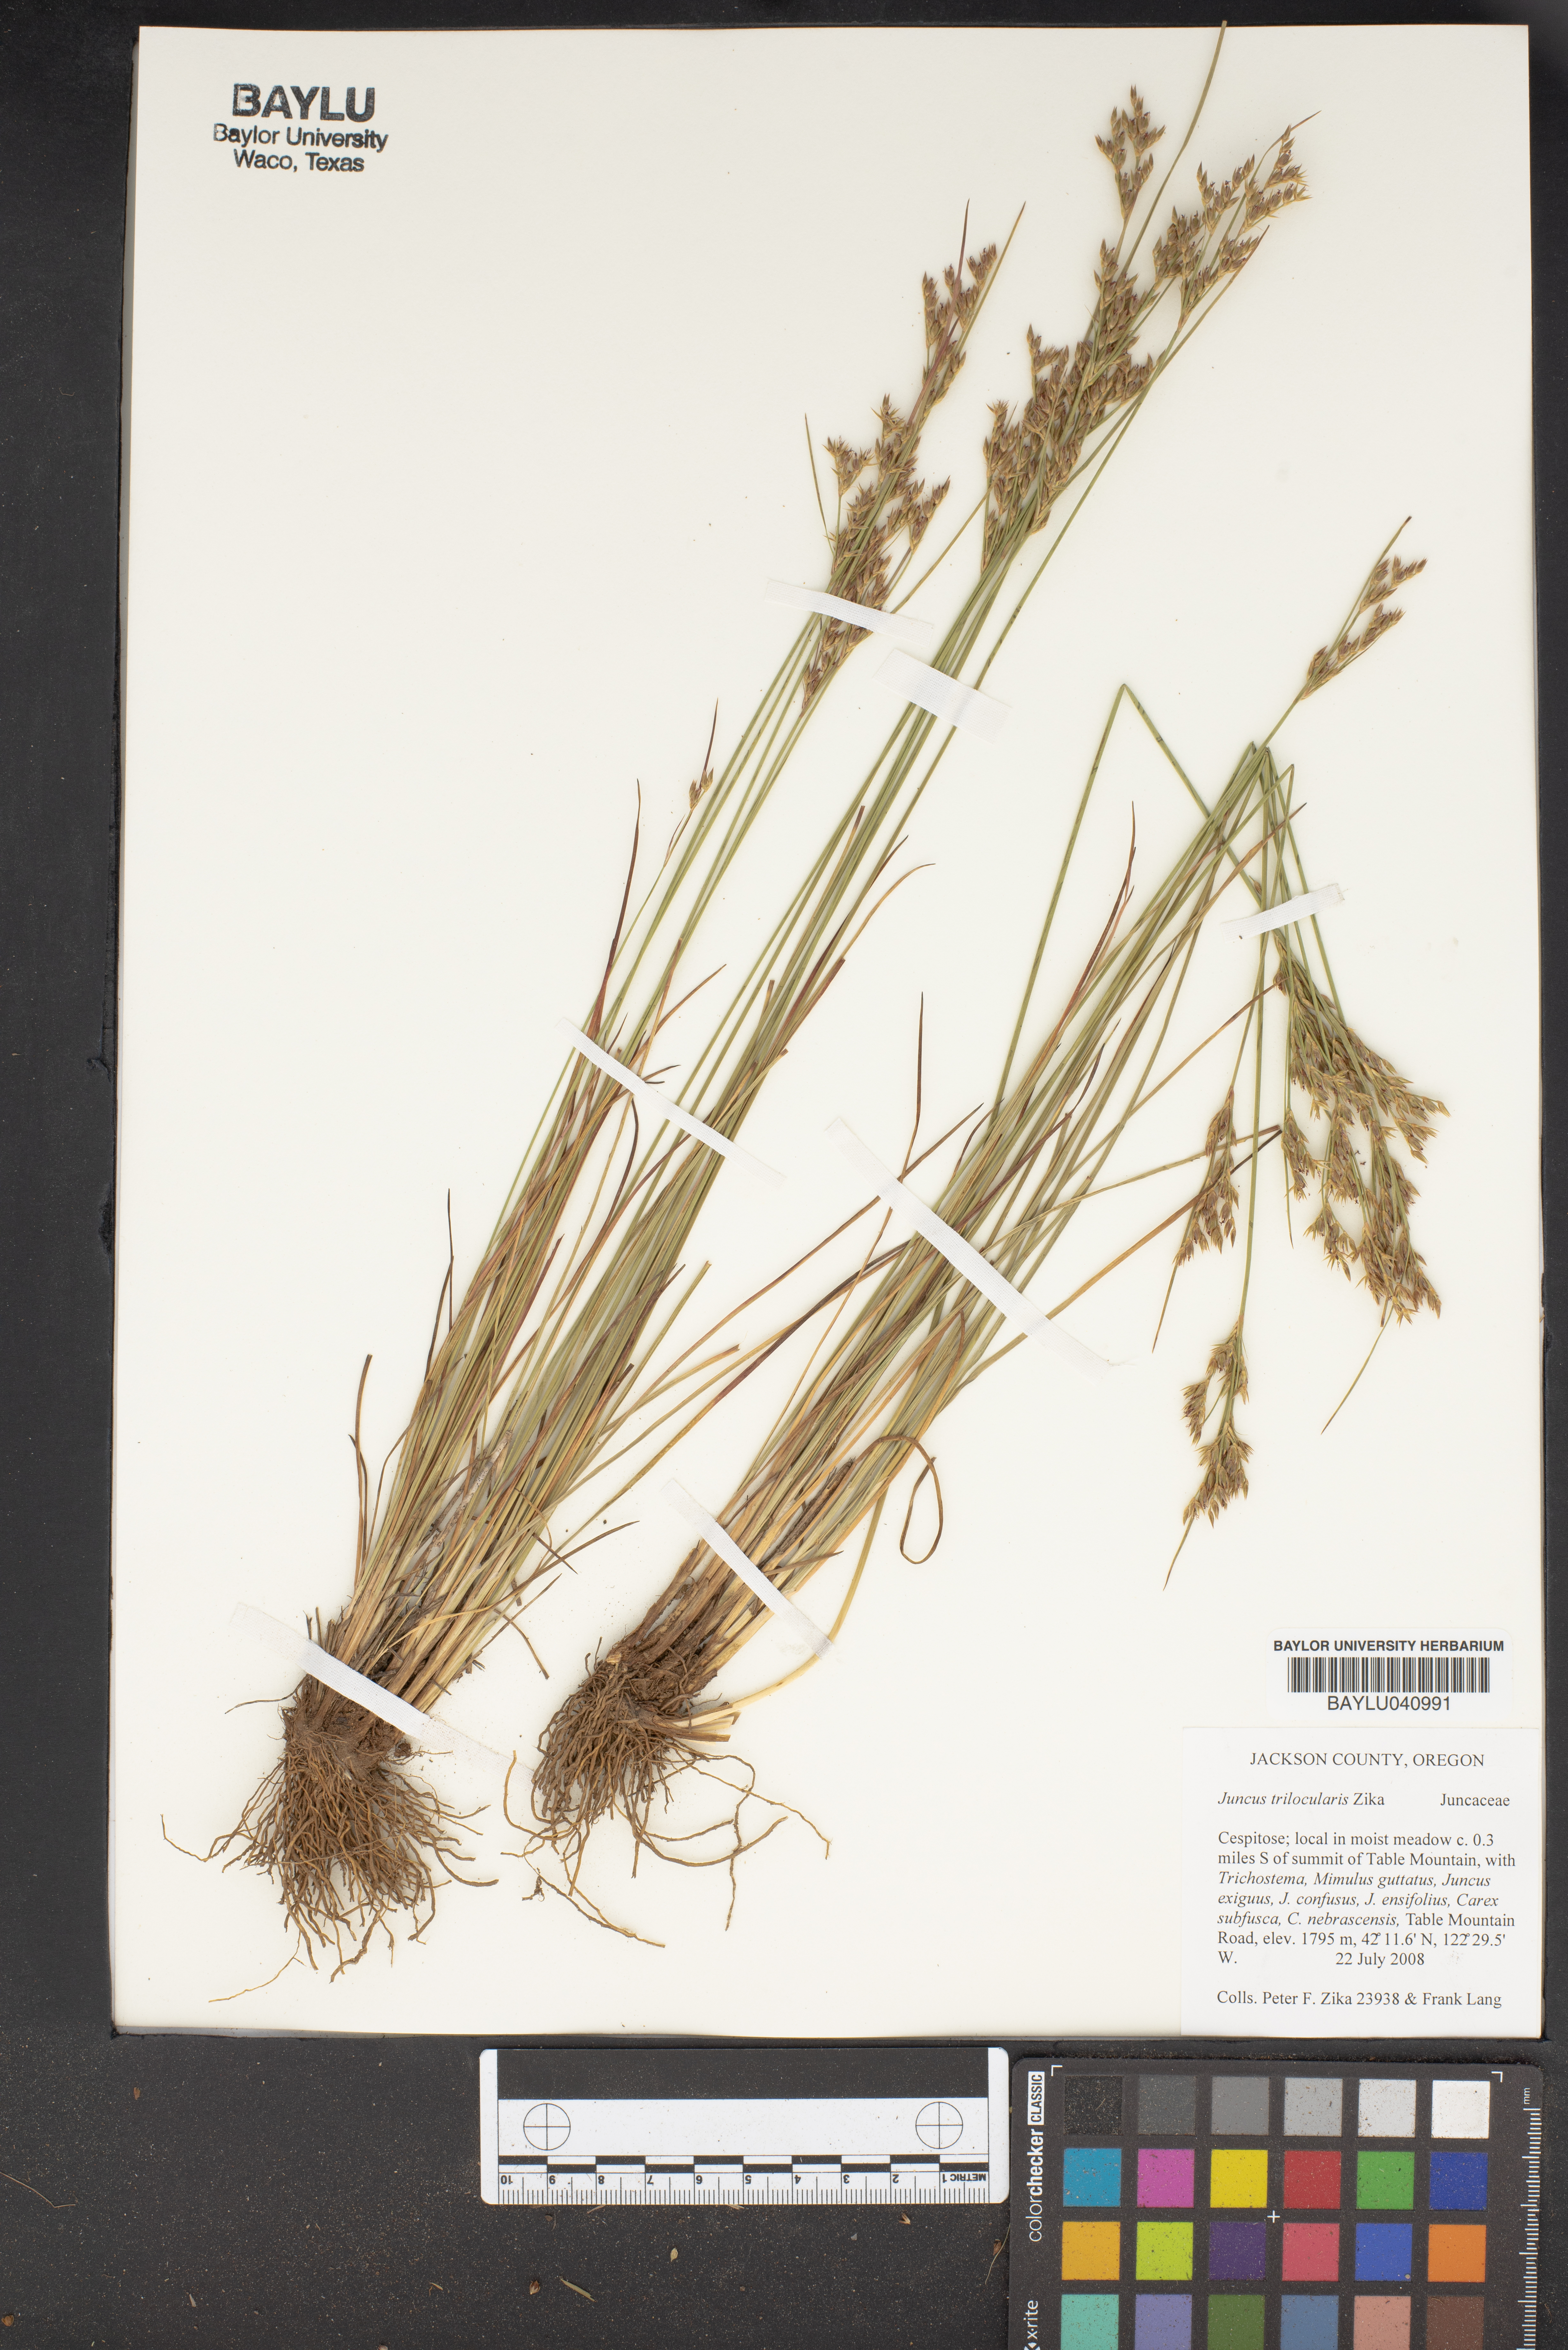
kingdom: Plantae
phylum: Tracheophyta
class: Liliopsida
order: Poales
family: Juncaceae
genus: Juncus
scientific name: Juncus trilocularis
